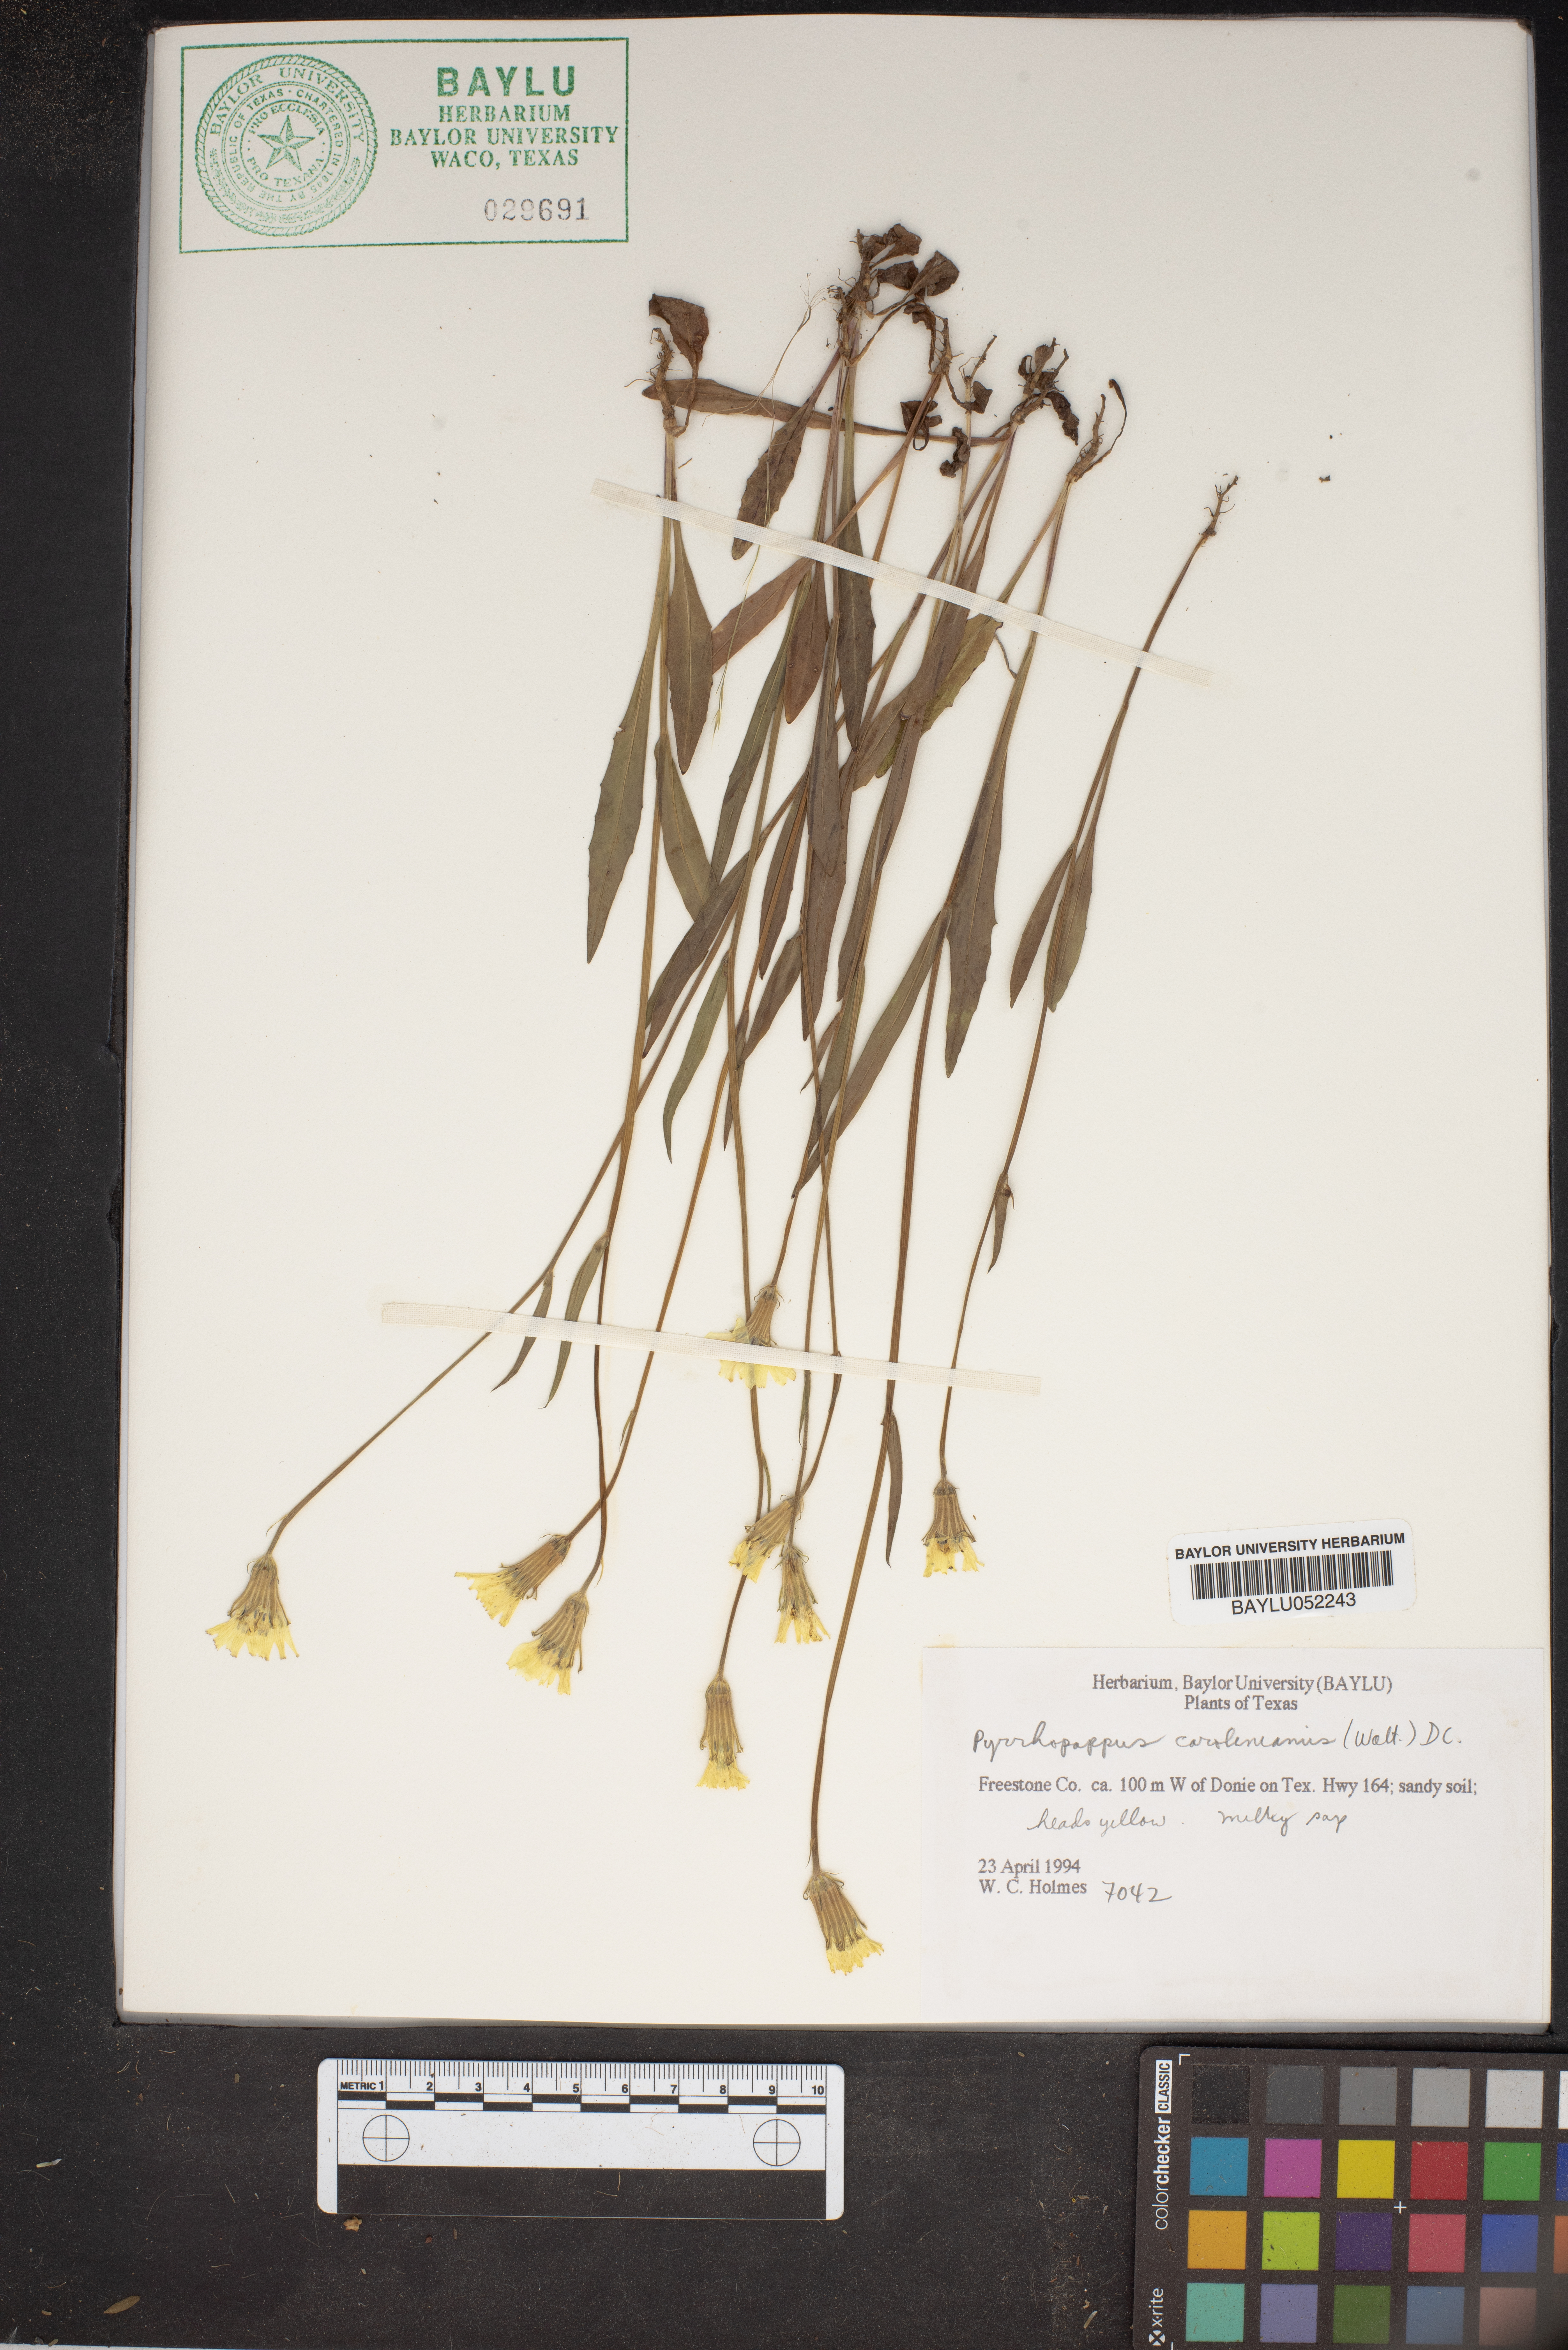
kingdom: Plantae
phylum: Tracheophyta
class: Magnoliopsida
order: Asterales
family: Asteraceae
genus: Pyrrhopappus
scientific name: Pyrrhopappus carolinianus
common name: Carolina desert-chicory
